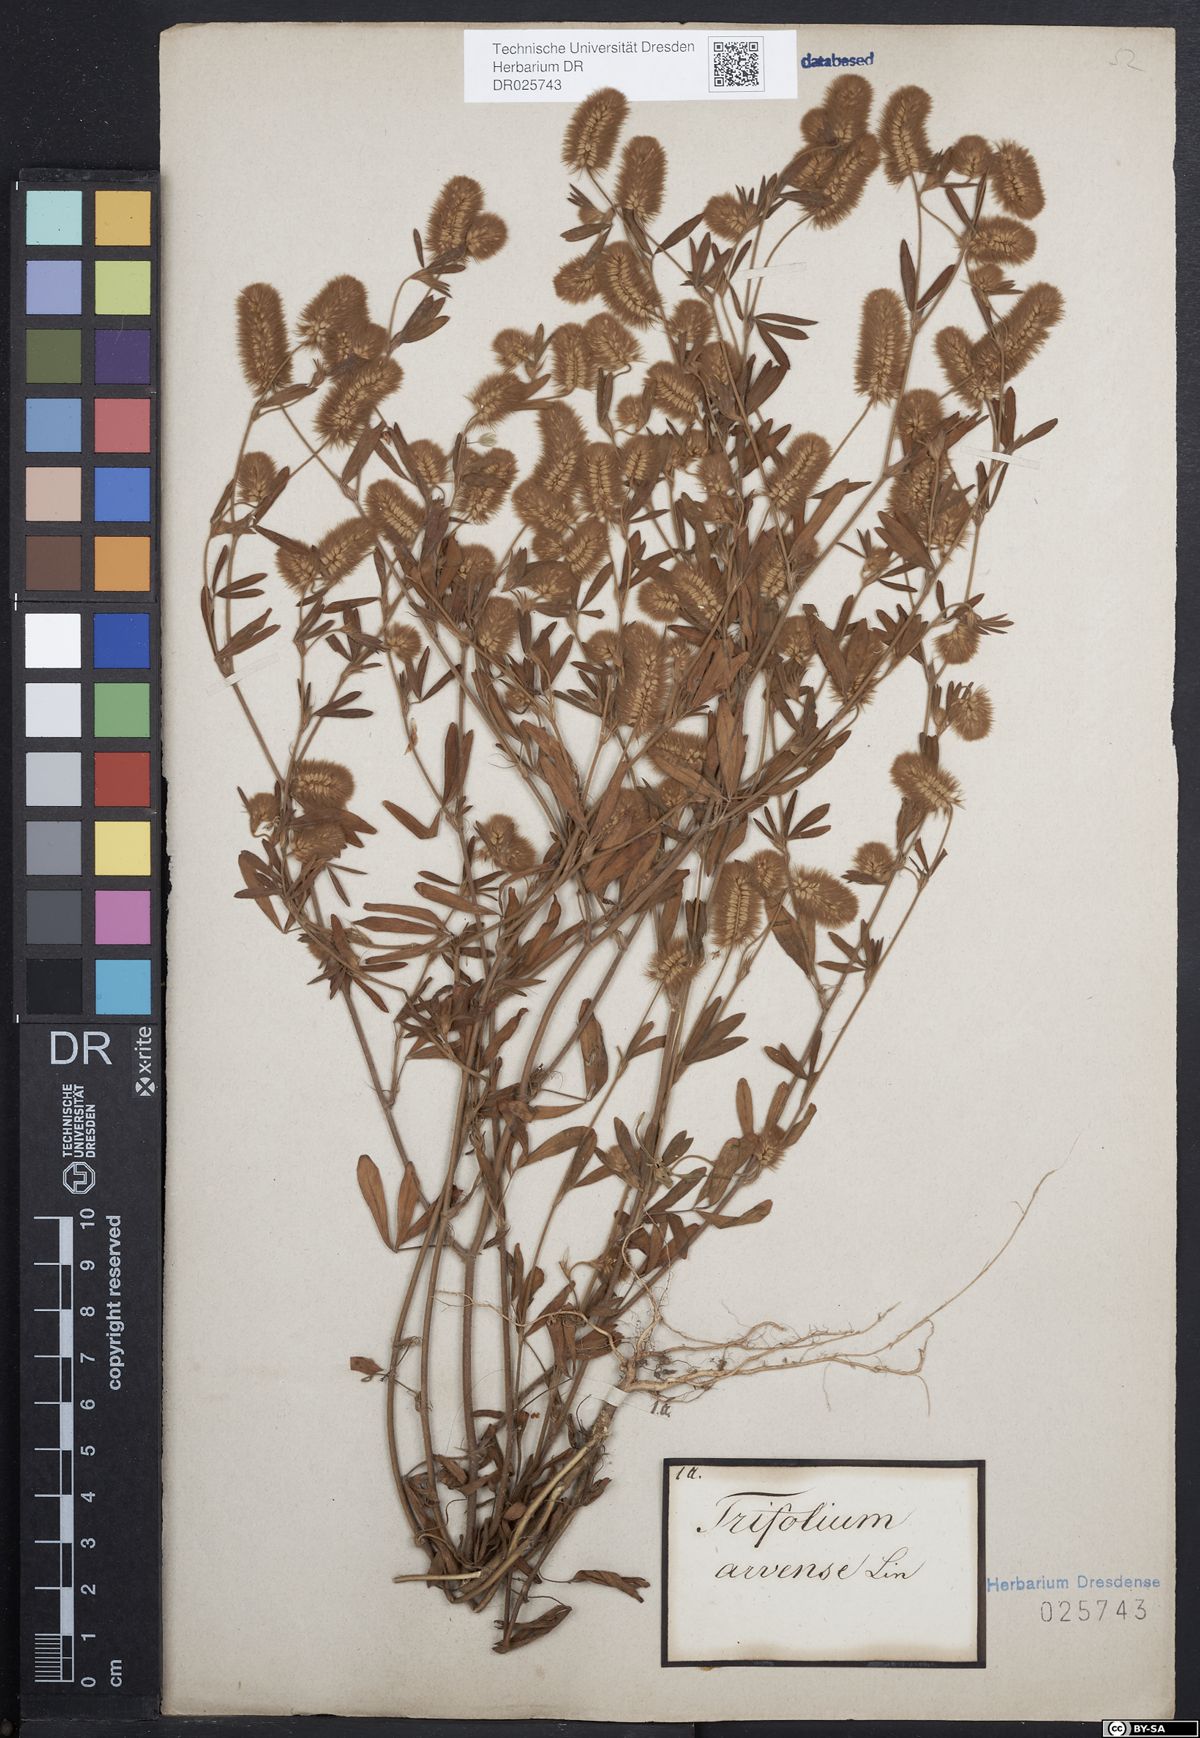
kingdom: Plantae
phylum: Tracheophyta
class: Magnoliopsida
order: Fabales
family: Fabaceae
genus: Trifolium
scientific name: Trifolium arvense
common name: Hare's-foot clover
